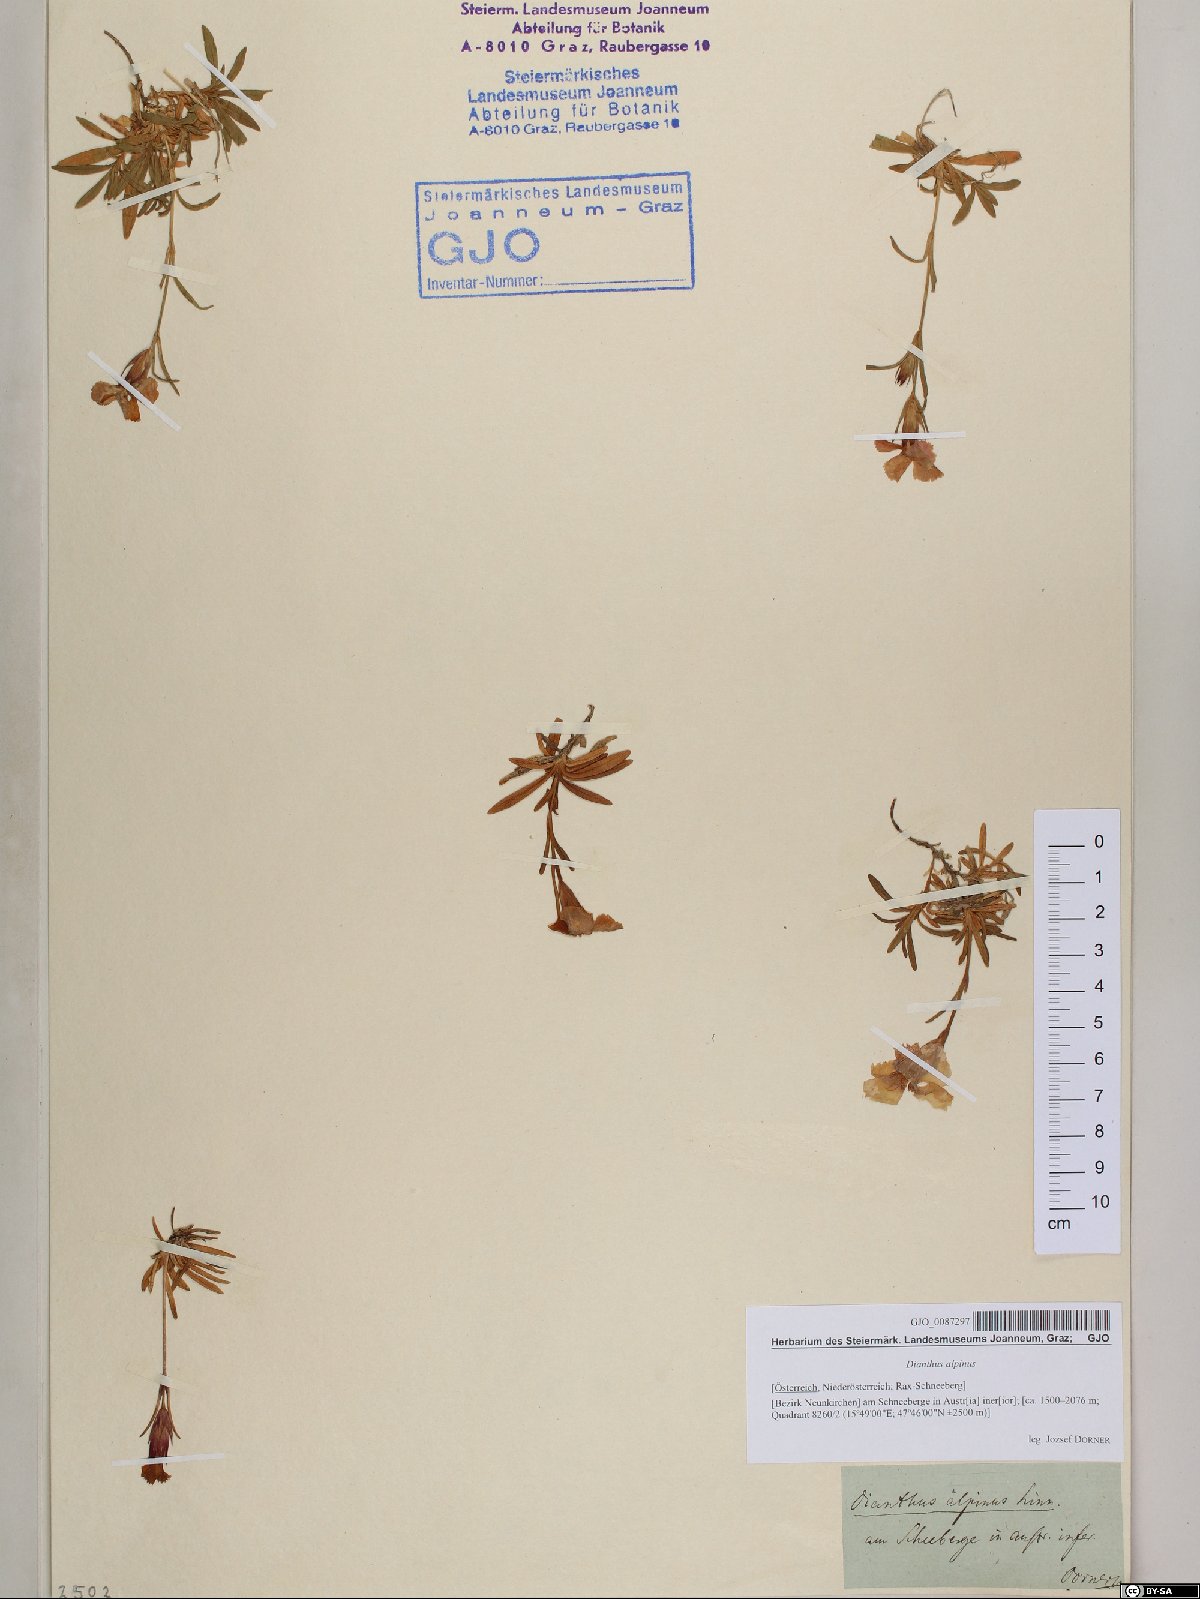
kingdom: Plantae
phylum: Tracheophyta
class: Magnoliopsida
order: Caryophyllales
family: Caryophyllaceae
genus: Dianthus
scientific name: Dianthus alpinus
